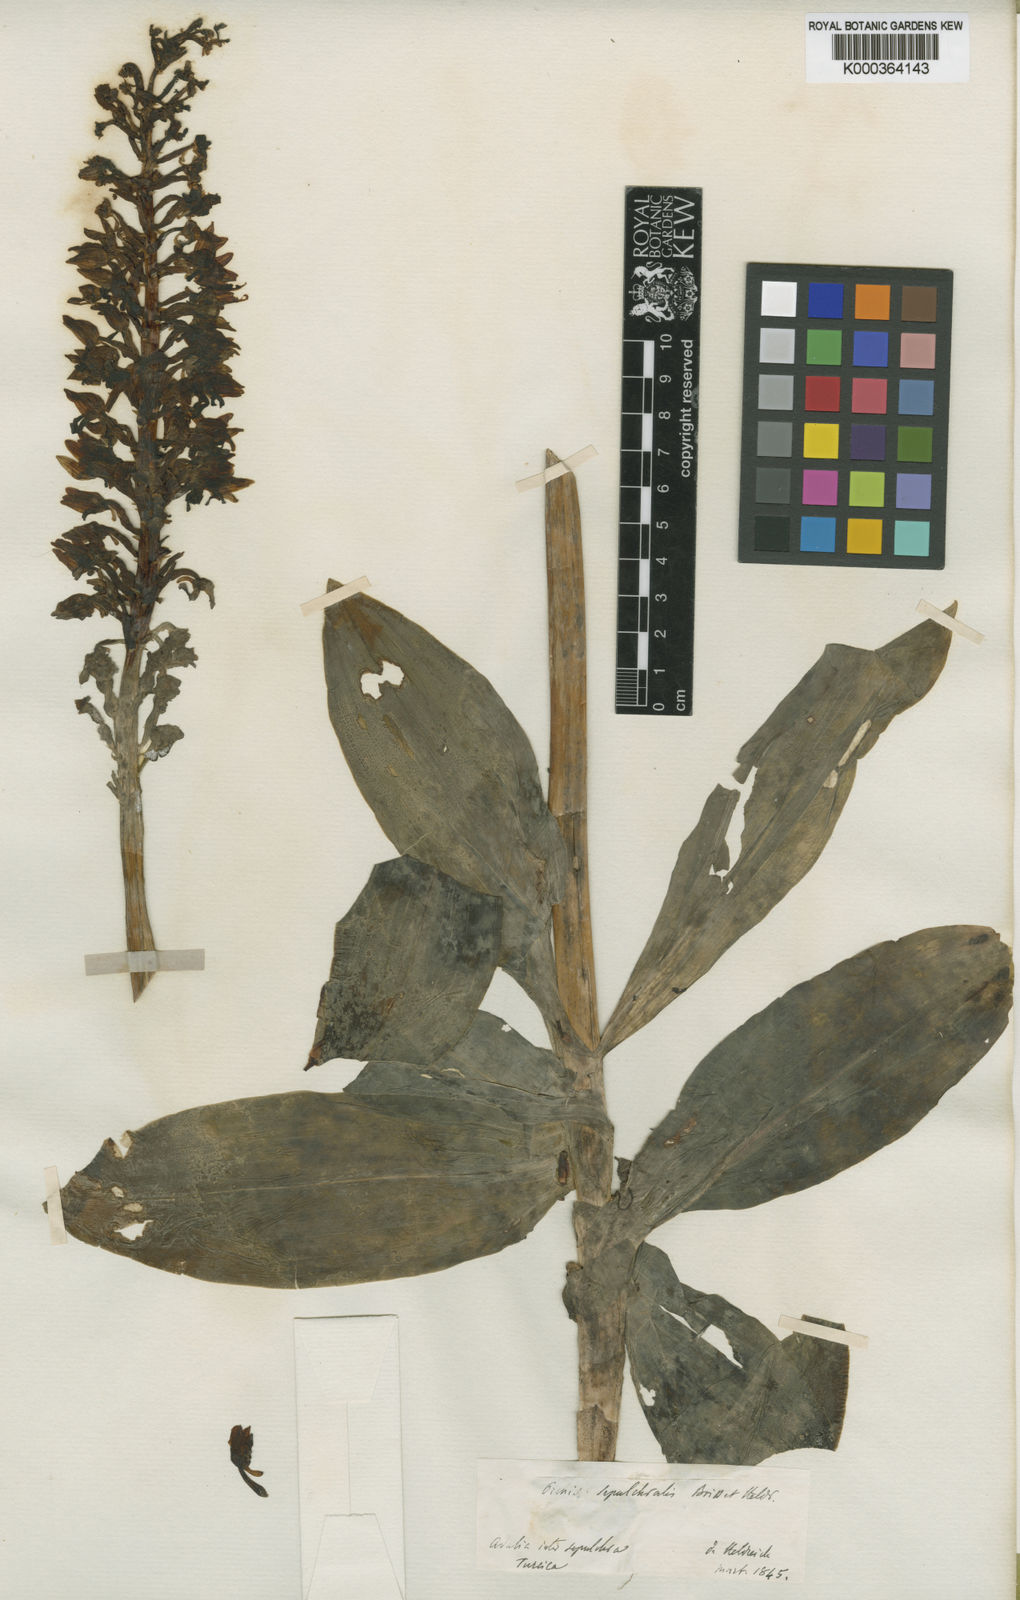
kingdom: Plantae
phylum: Tracheophyta
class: Liliopsida
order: Asparagales
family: Orchidaceae
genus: Orchis
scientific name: Orchis punctulata
